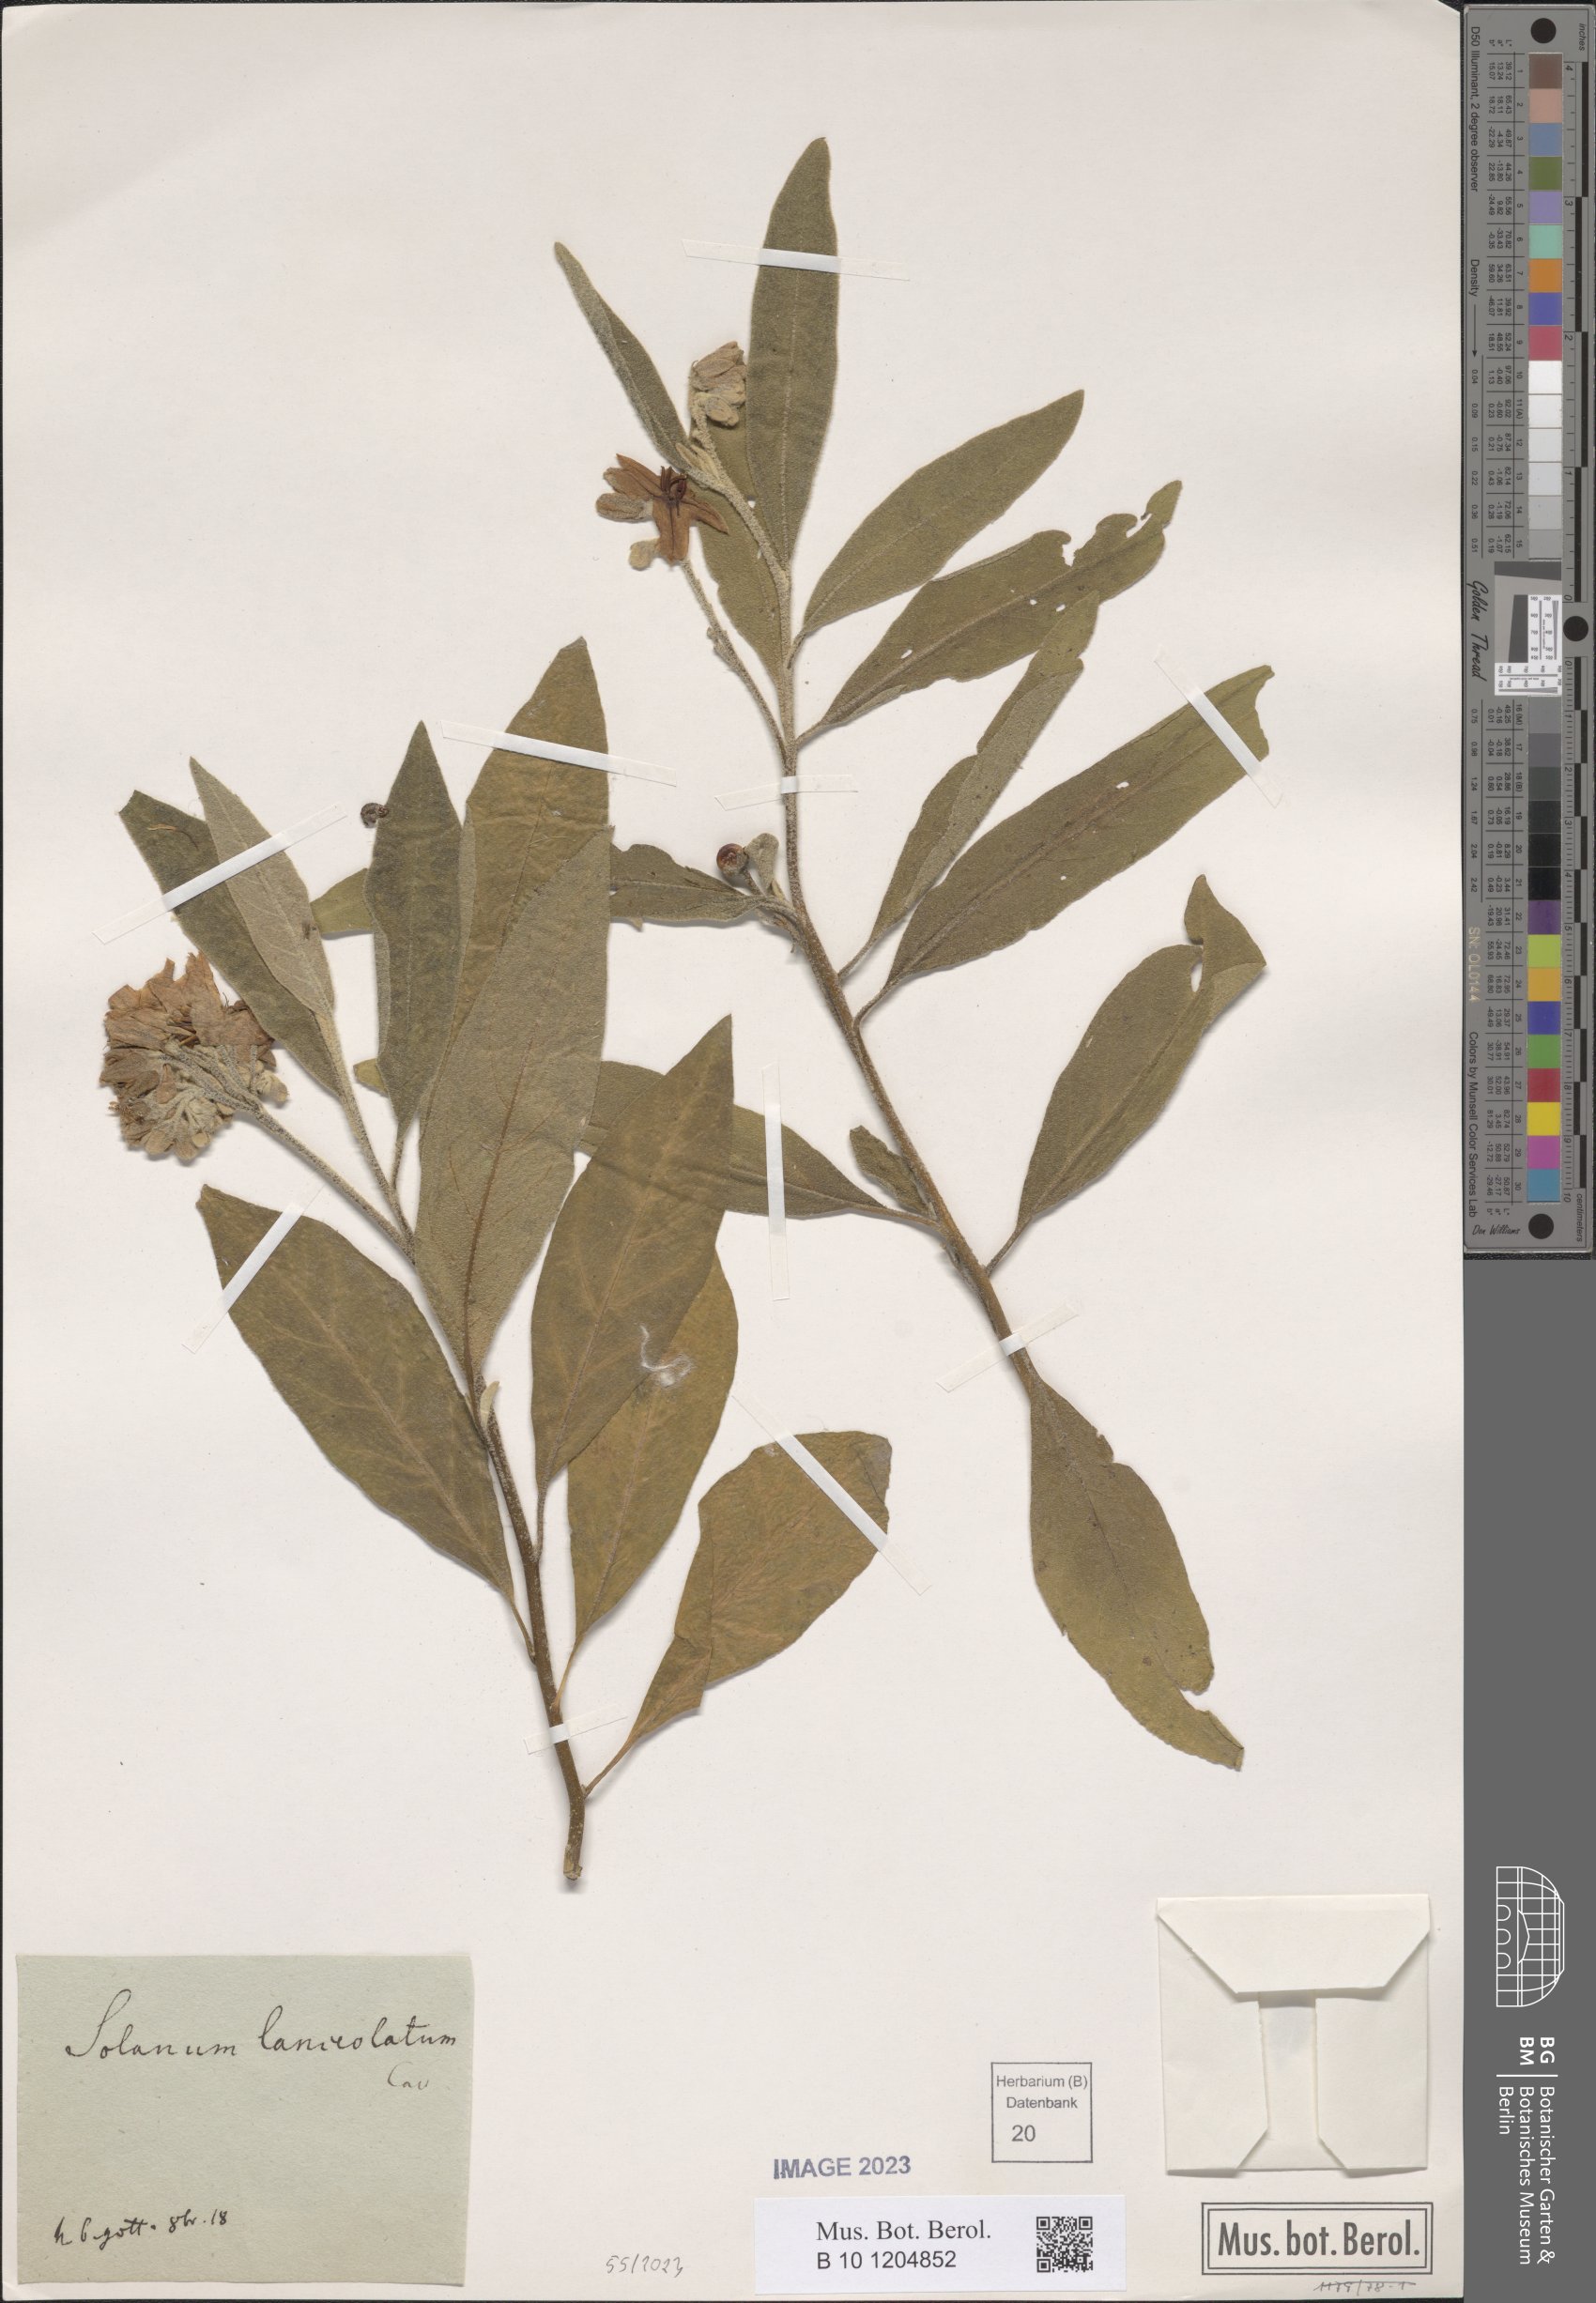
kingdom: Plantae
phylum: Tracheophyta
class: Magnoliopsida
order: Solanales
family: Solanaceae
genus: Solanum
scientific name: Solanum lanceolatum
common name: Orangeberry nightshade
